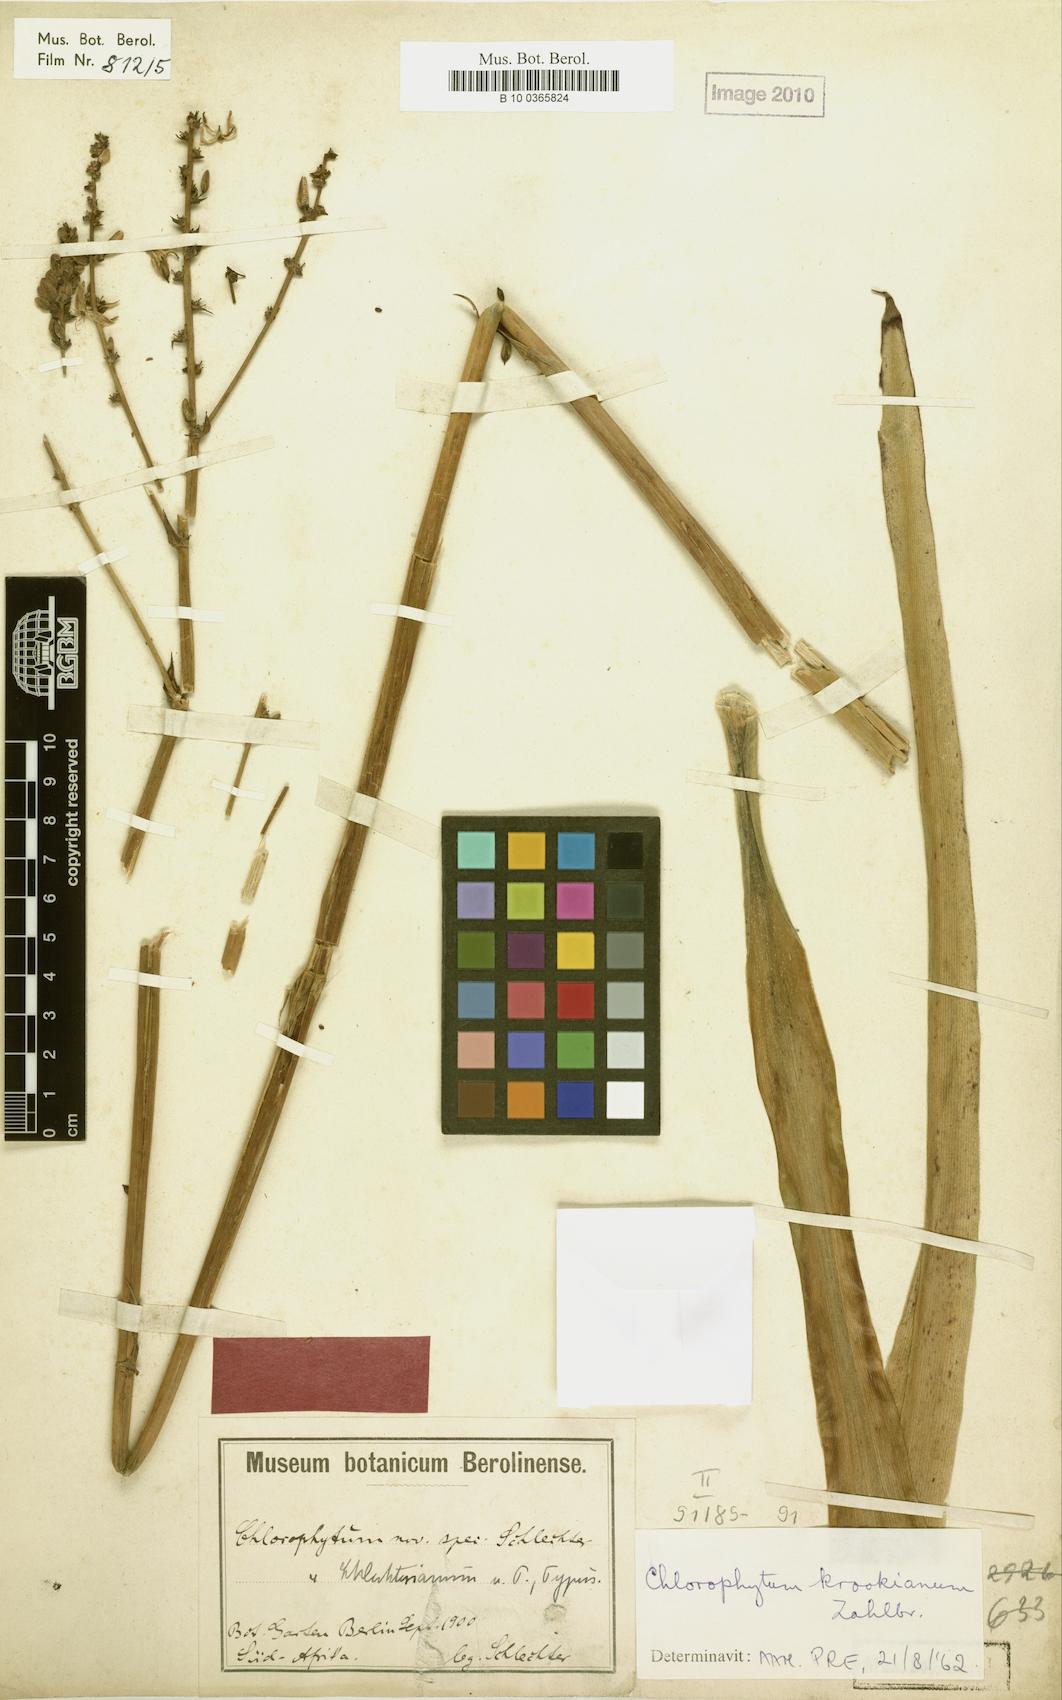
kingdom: Plantae
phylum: Tracheophyta
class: Liliopsida
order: Asparagales
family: Asparagaceae
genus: Chlorophytum
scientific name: Chlorophytum krookianum
